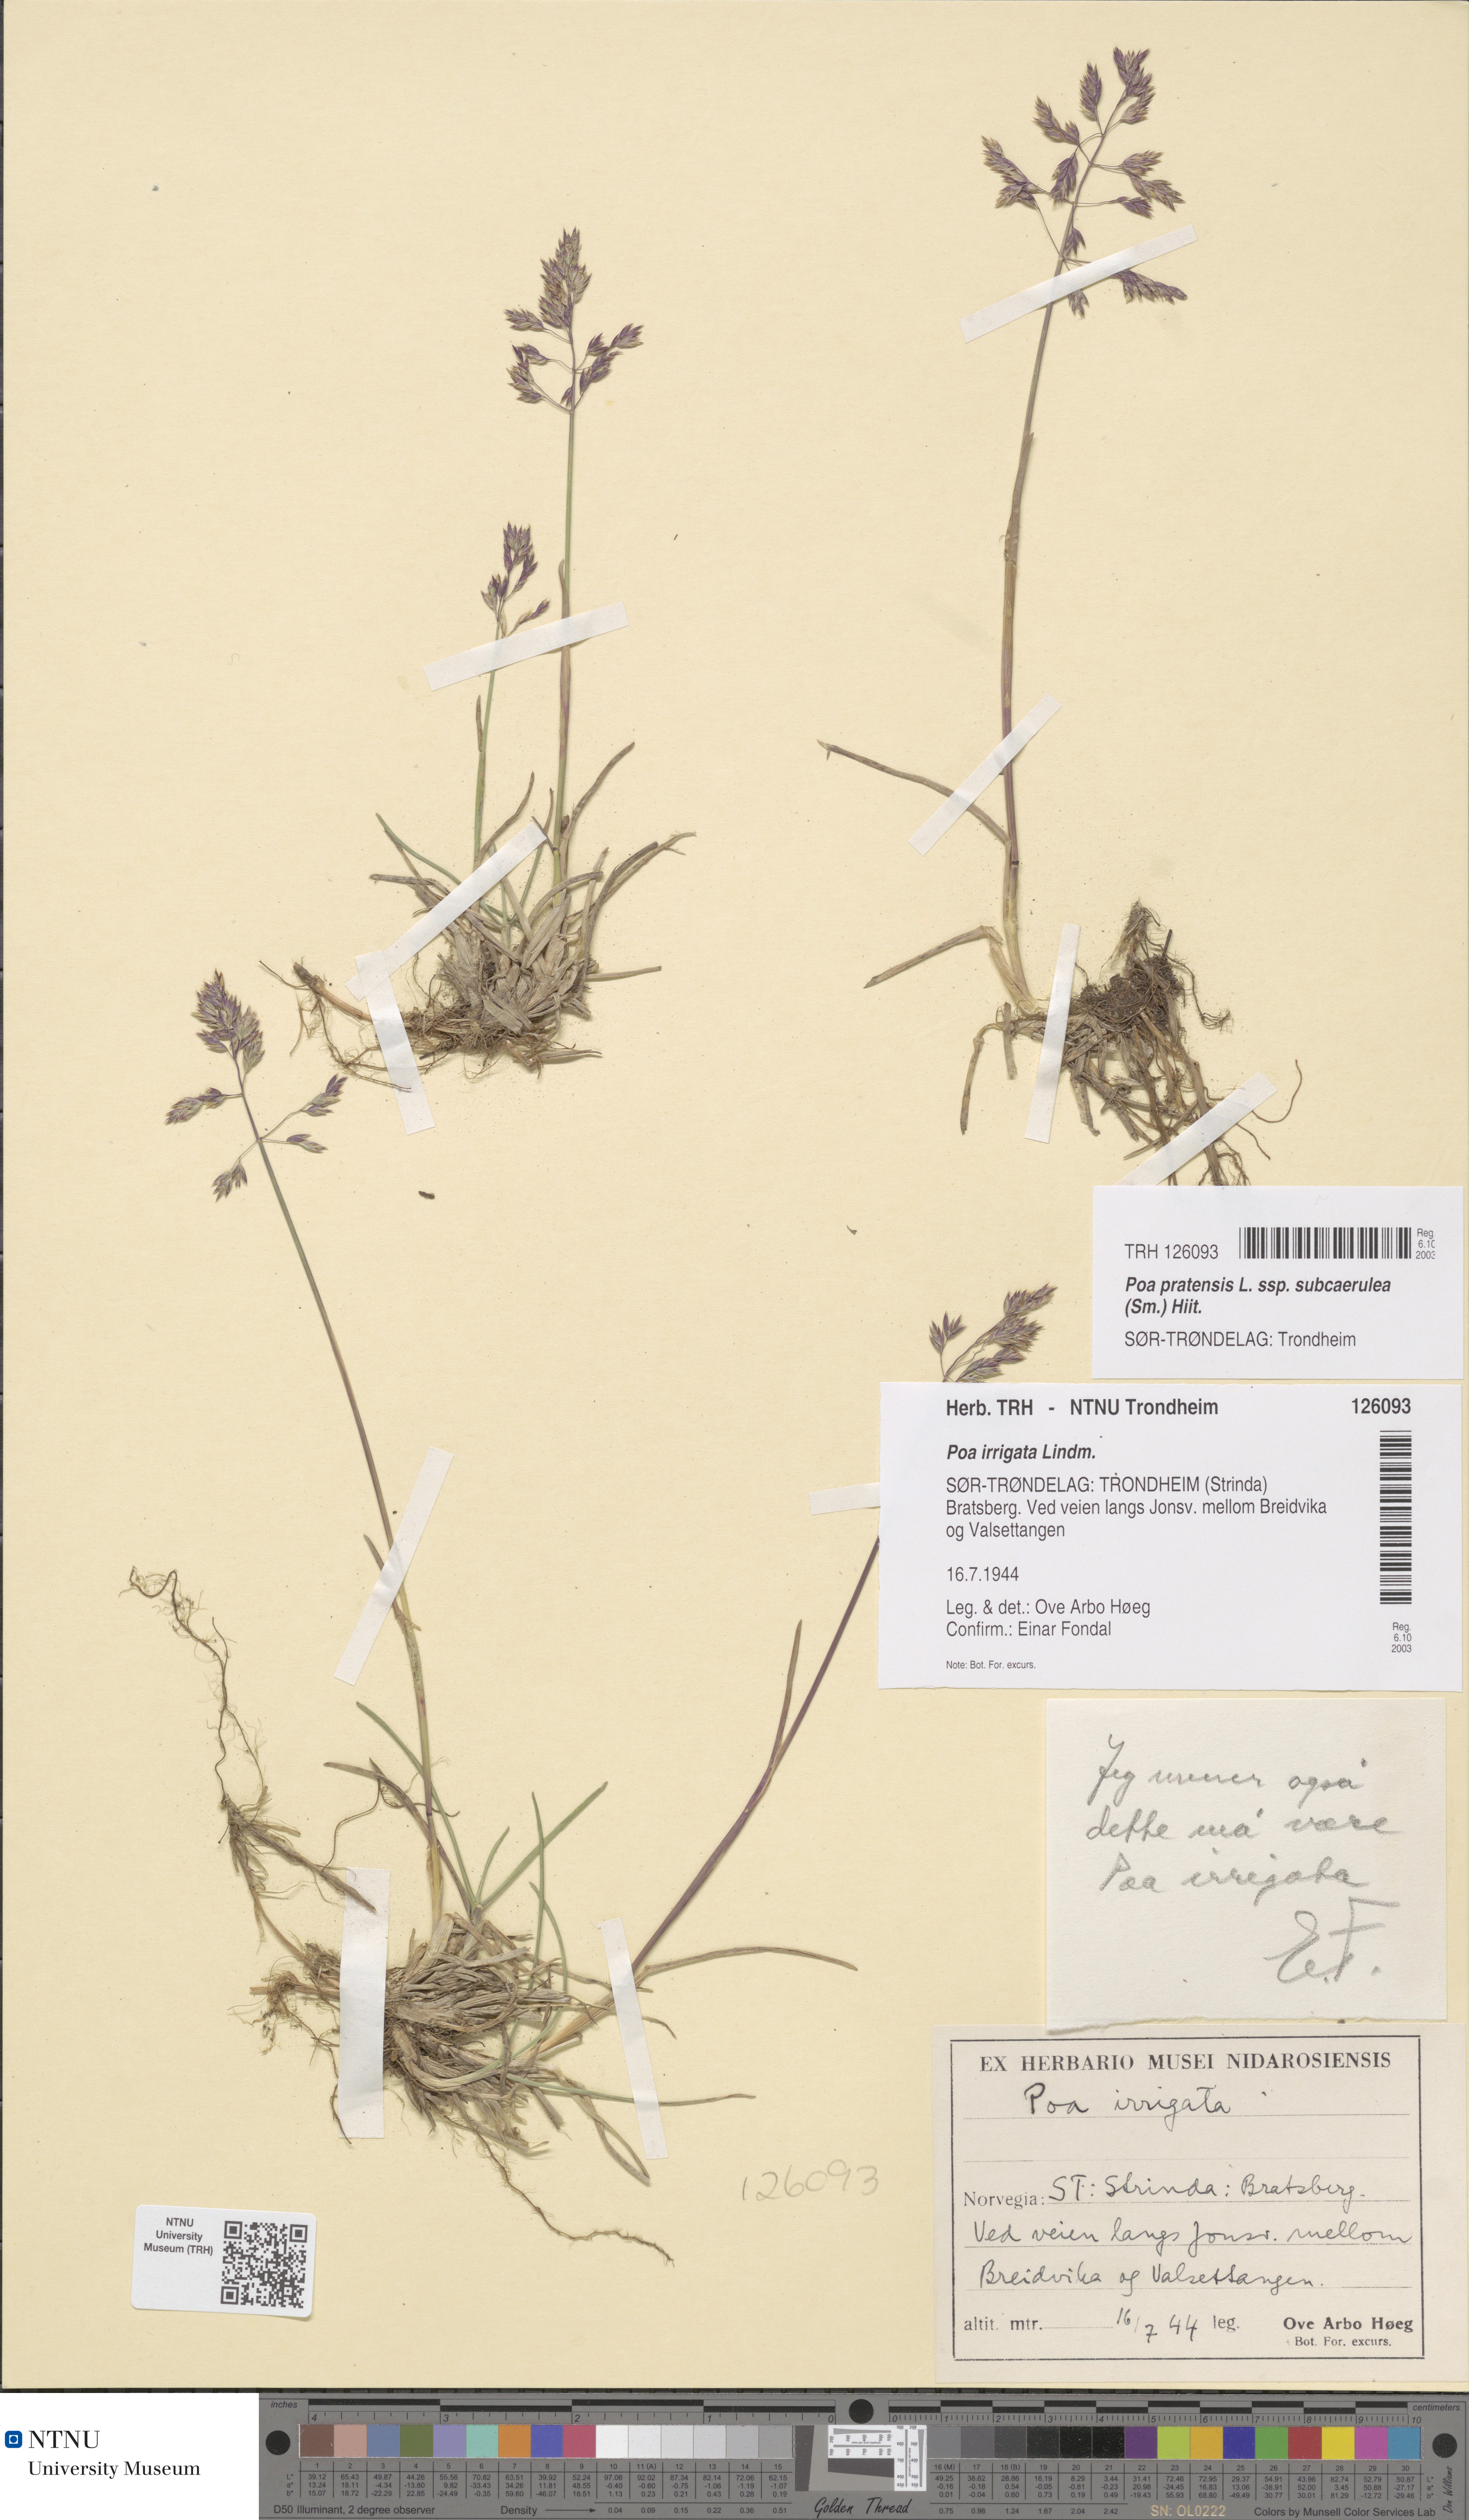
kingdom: Plantae
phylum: Tracheophyta
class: Liliopsida
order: Poales
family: Poaceae
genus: Poa
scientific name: Poa humilis
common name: Spreading meadow-grass
